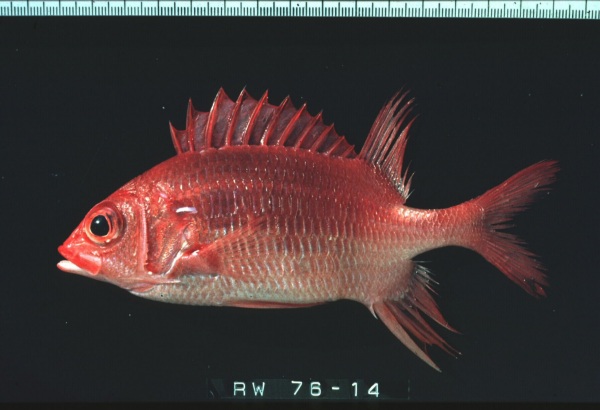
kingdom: Animalia
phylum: Chordata
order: Beryciformes
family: Holocentridae
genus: Sargocentron
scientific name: Sargocentron caudimaculatum
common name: Fanfin soldier
